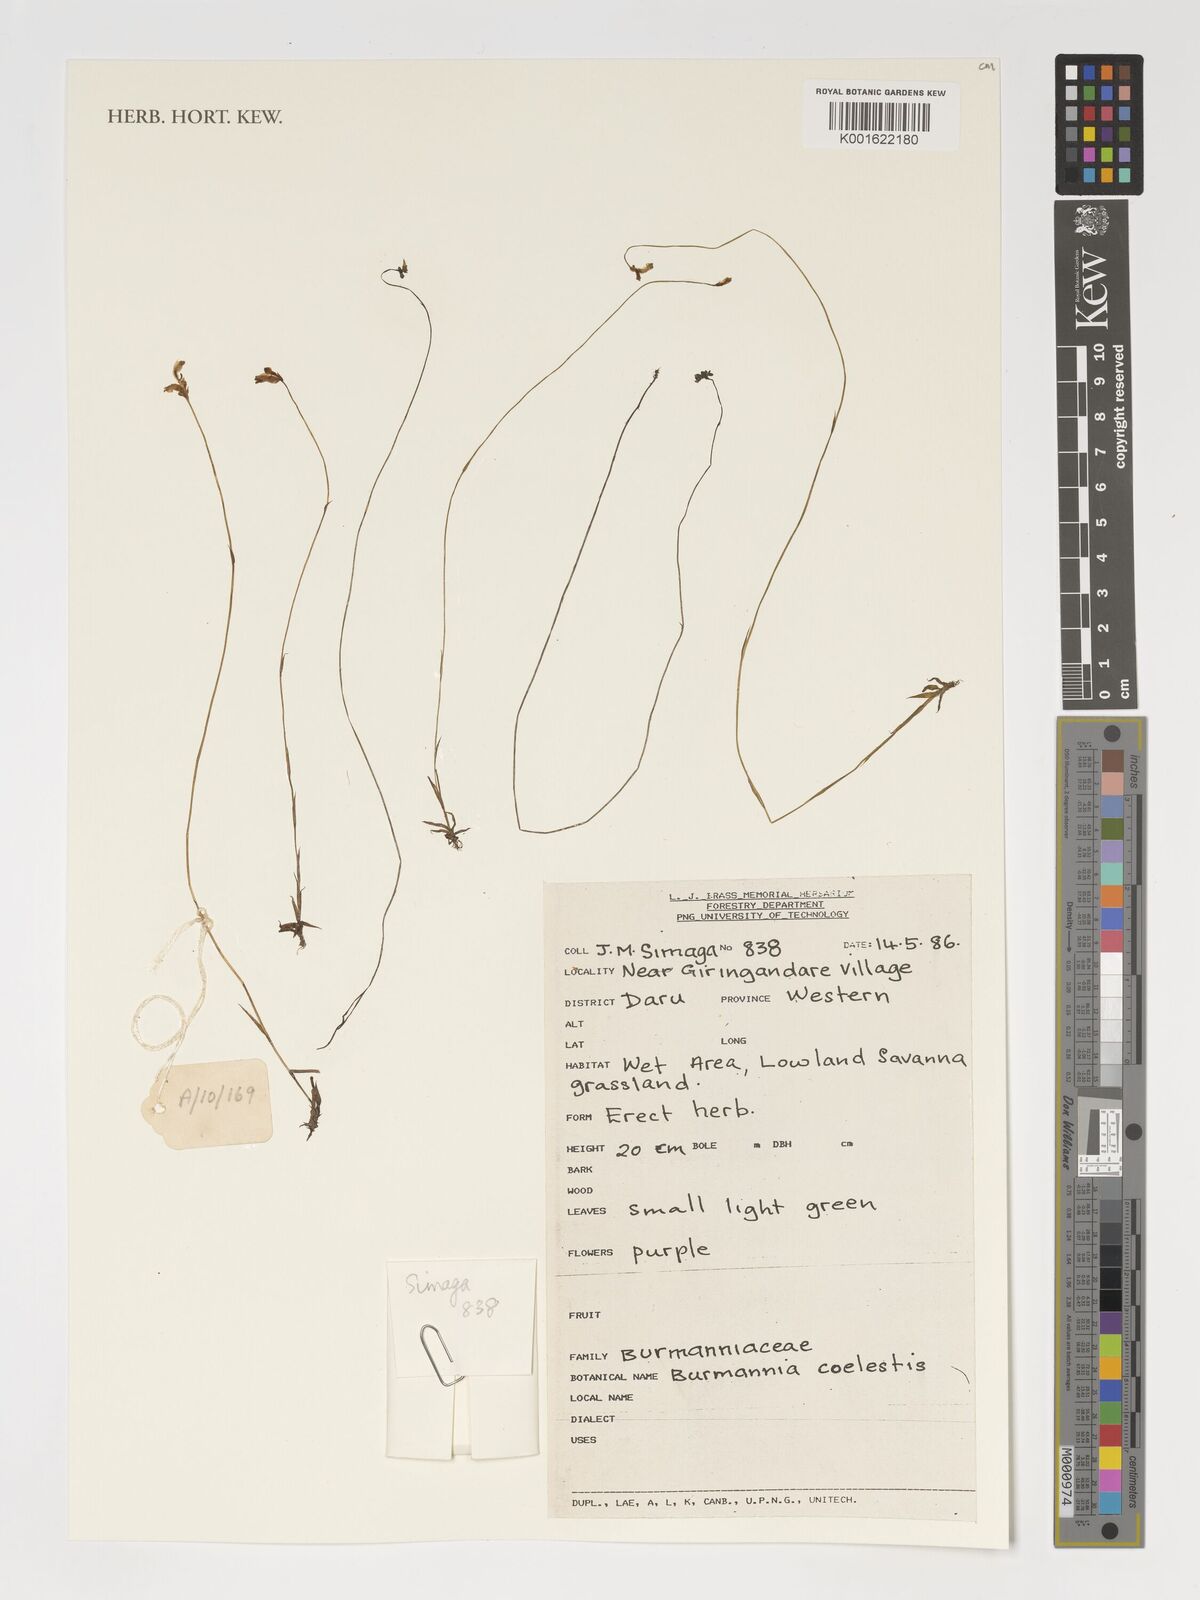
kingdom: Plantae
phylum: Tracheophyta
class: Liliopsida
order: Dioscoreales
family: Burmanniaceae
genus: Burmannia
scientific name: Burmannia coelestis
